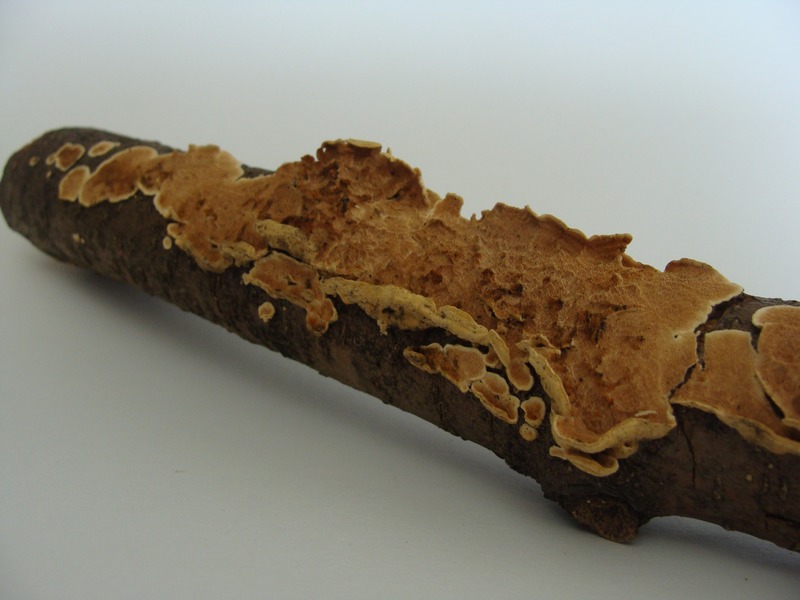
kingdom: Fungi
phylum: Basidiomycota
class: Agaricomycetes
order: Polyporales
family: Steccherinaceae
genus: Steccherinum
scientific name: Steccherinum ochraceum
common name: Ochre spreading tooth
